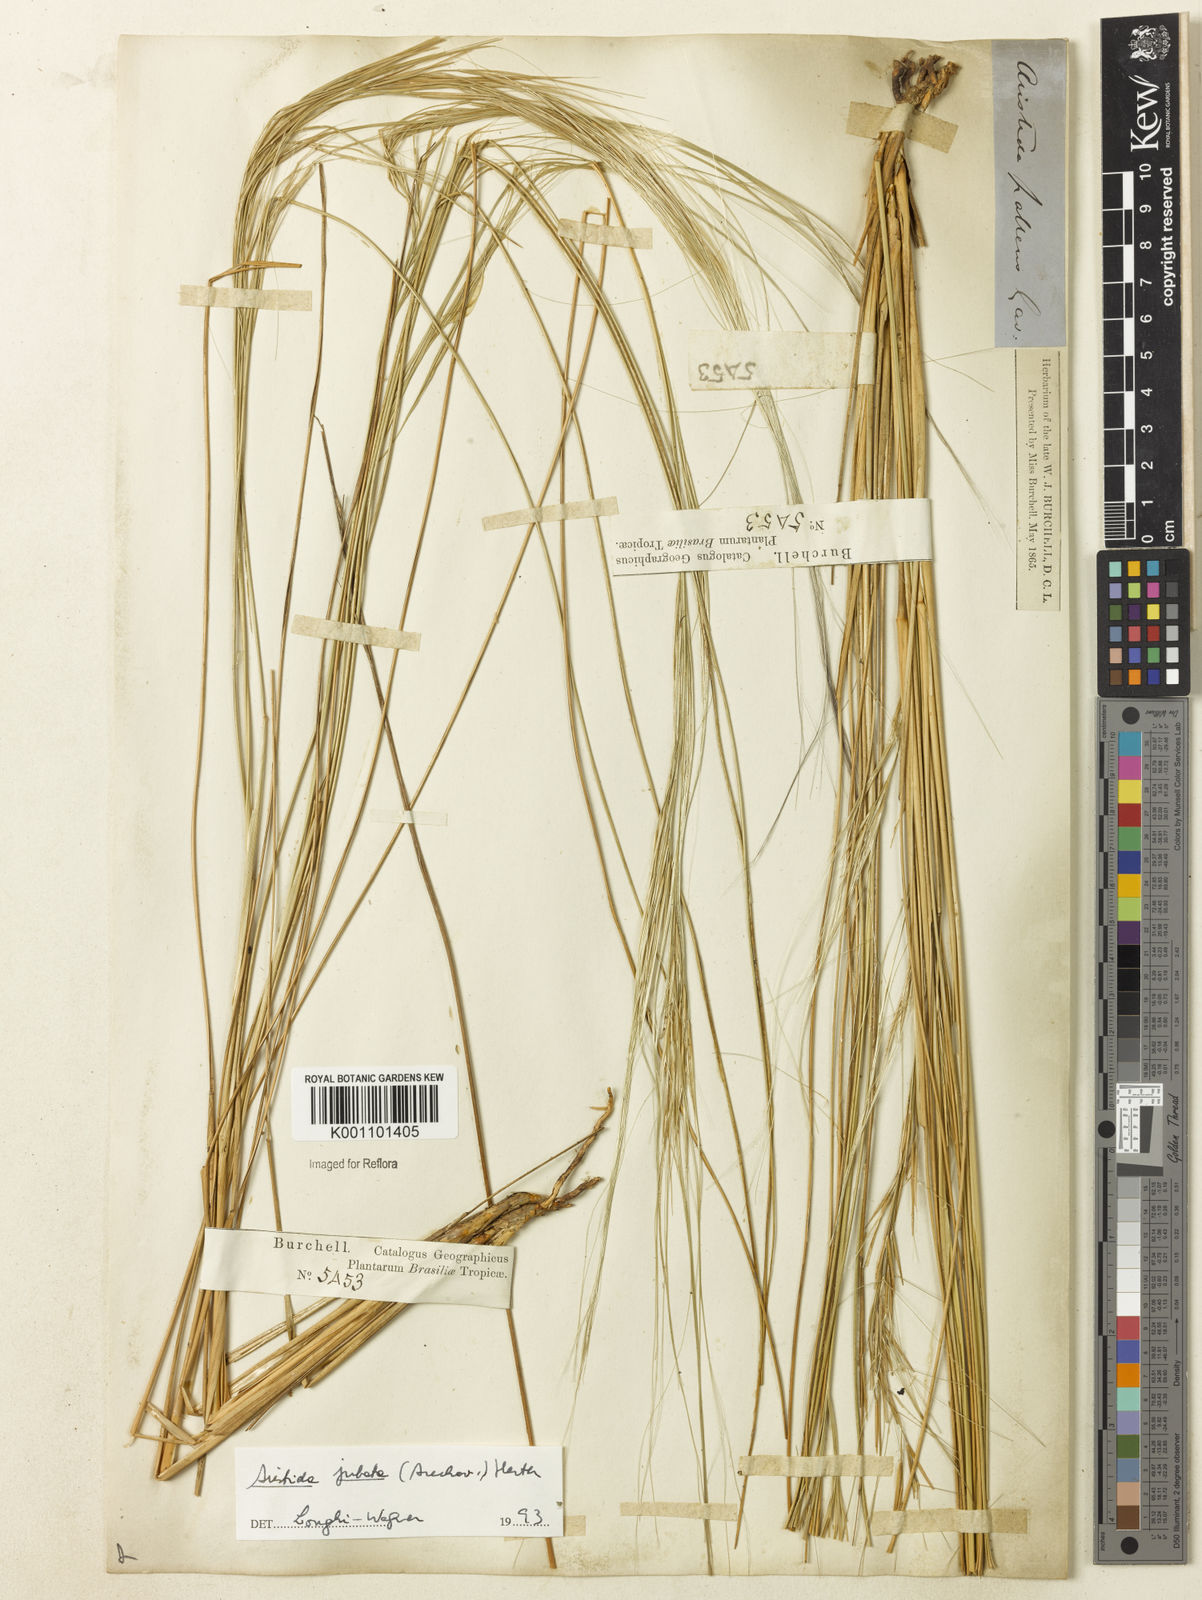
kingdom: Plantae
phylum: Tracheophyta
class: Liliopsida
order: Poales
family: Poaceae
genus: Aristida
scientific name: Aristida jubata
